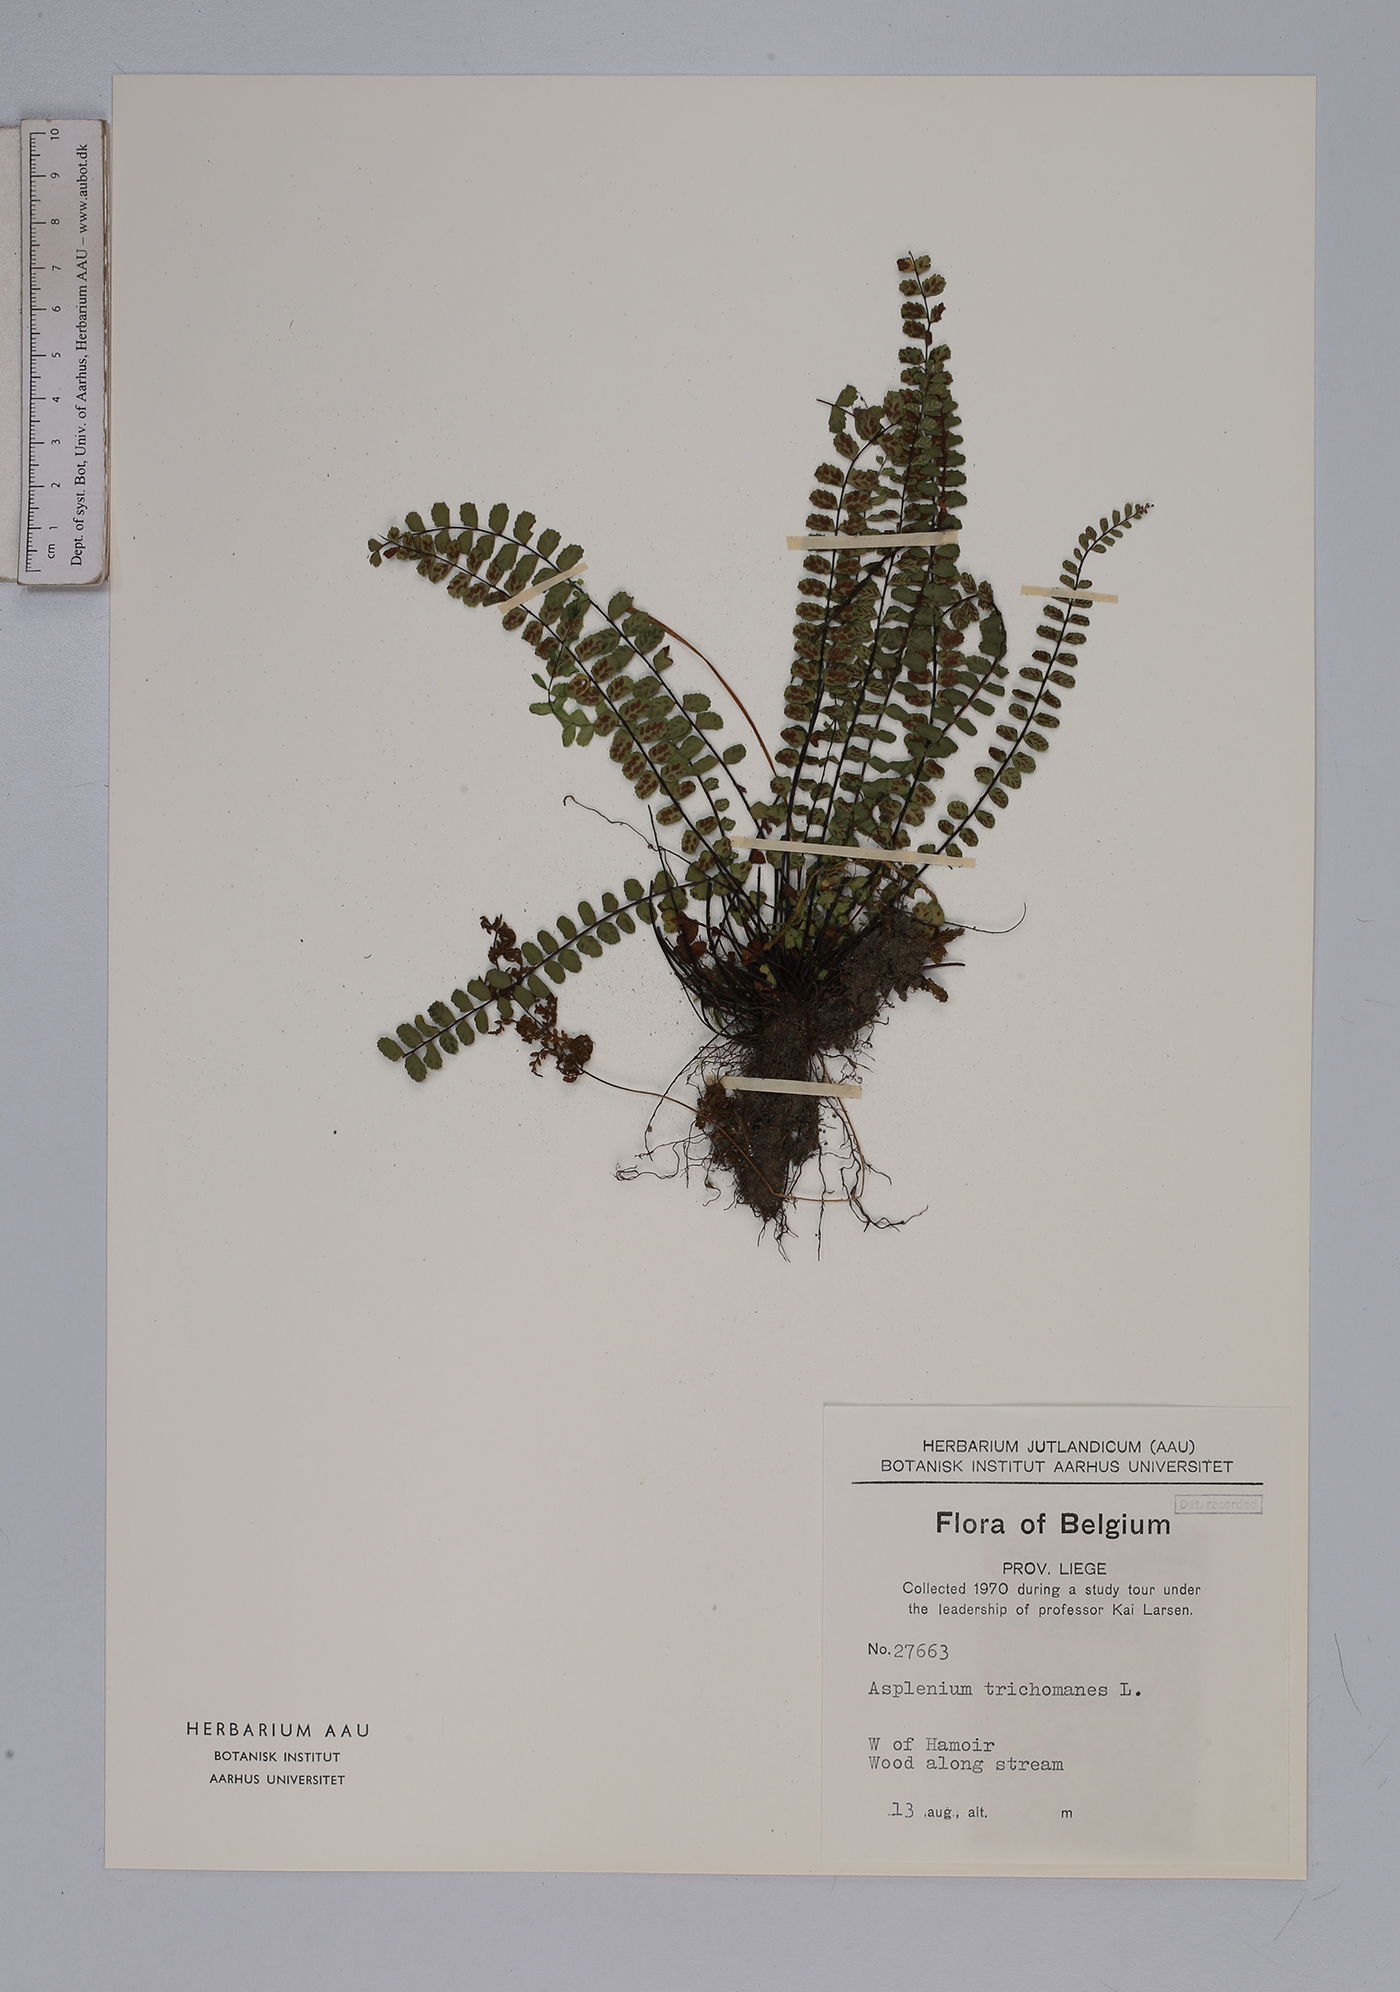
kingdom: Plantae
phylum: Tracheophyta
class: Polypodiopsida
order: Polypodiales
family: Aspleniaceae
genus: Asplenium
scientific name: Asplenium trichomanes
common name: Maidenhair spleenwort
